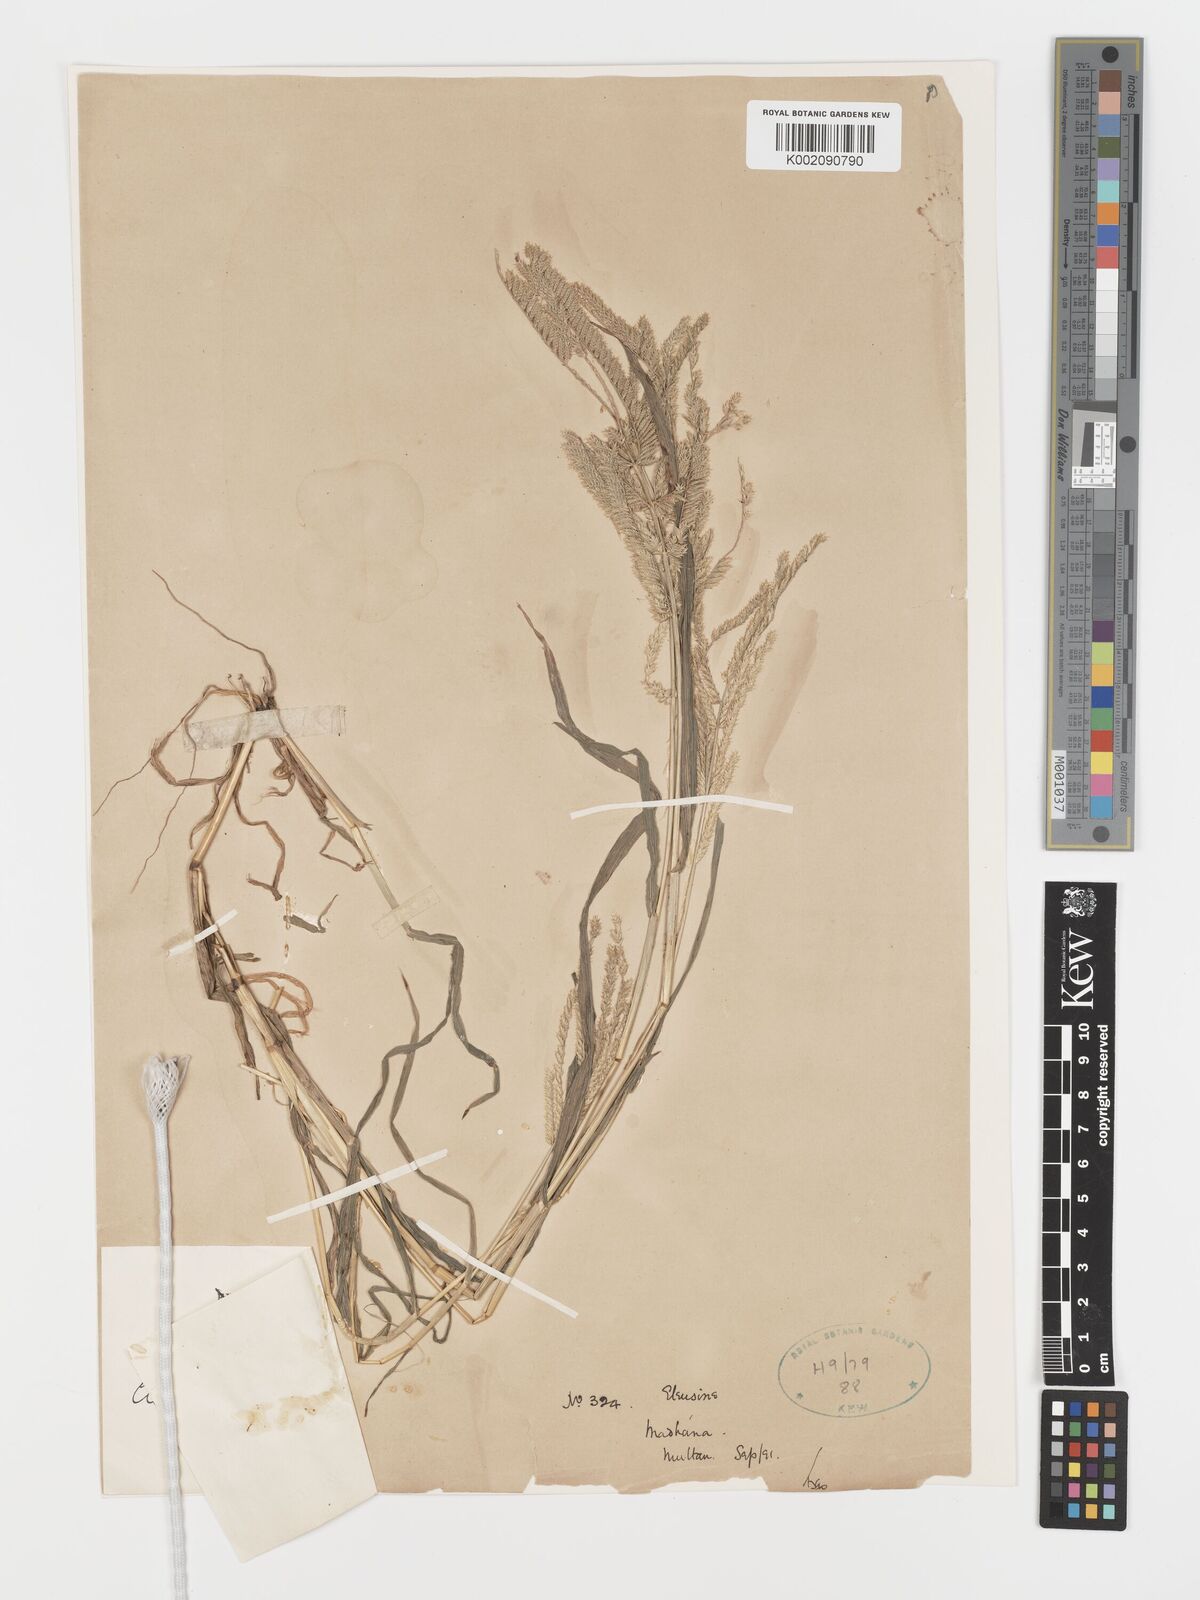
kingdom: Plantae
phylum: Tracheophyta
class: Liliopsida
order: Poales
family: Poaceae
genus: Acrachne
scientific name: Acrachne racemosa
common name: Goosegrass
